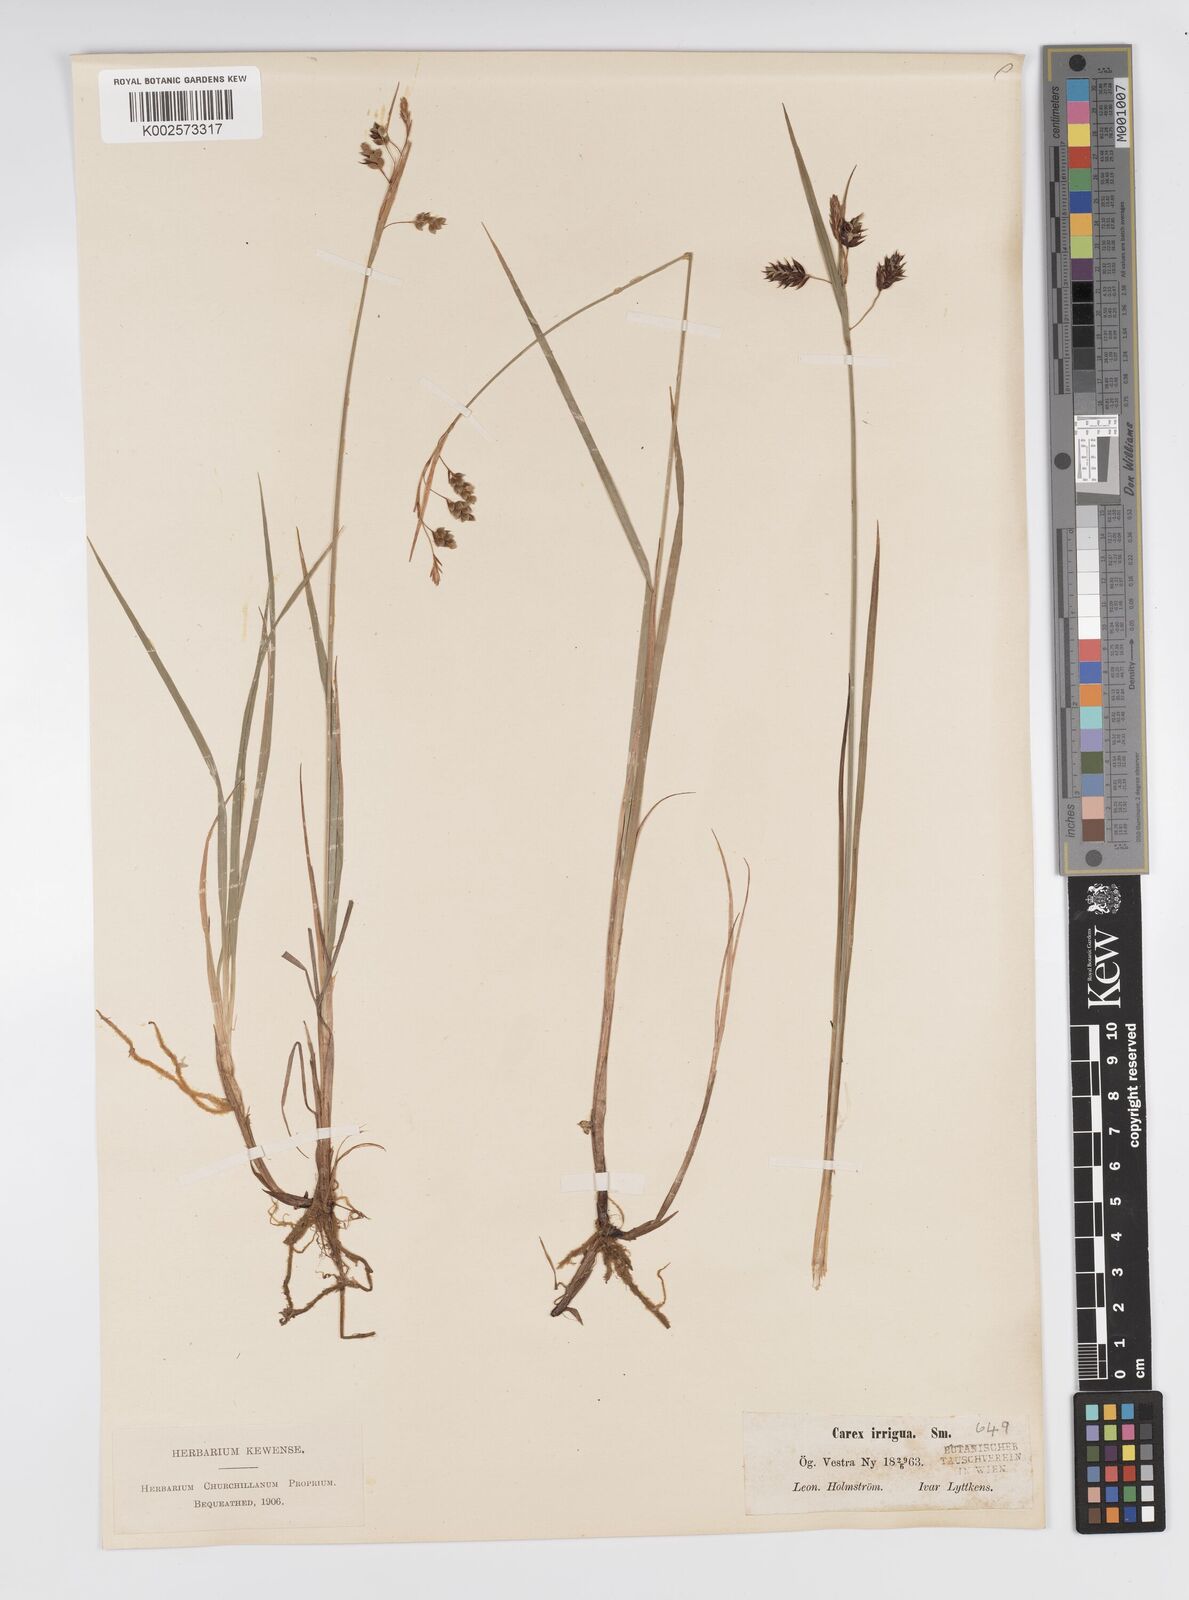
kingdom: Plantae
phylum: Tracheophyta
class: Liliopsida
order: Poales
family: Cyperaceae
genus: Carex
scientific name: Carex magellanica
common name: Bog sedge
